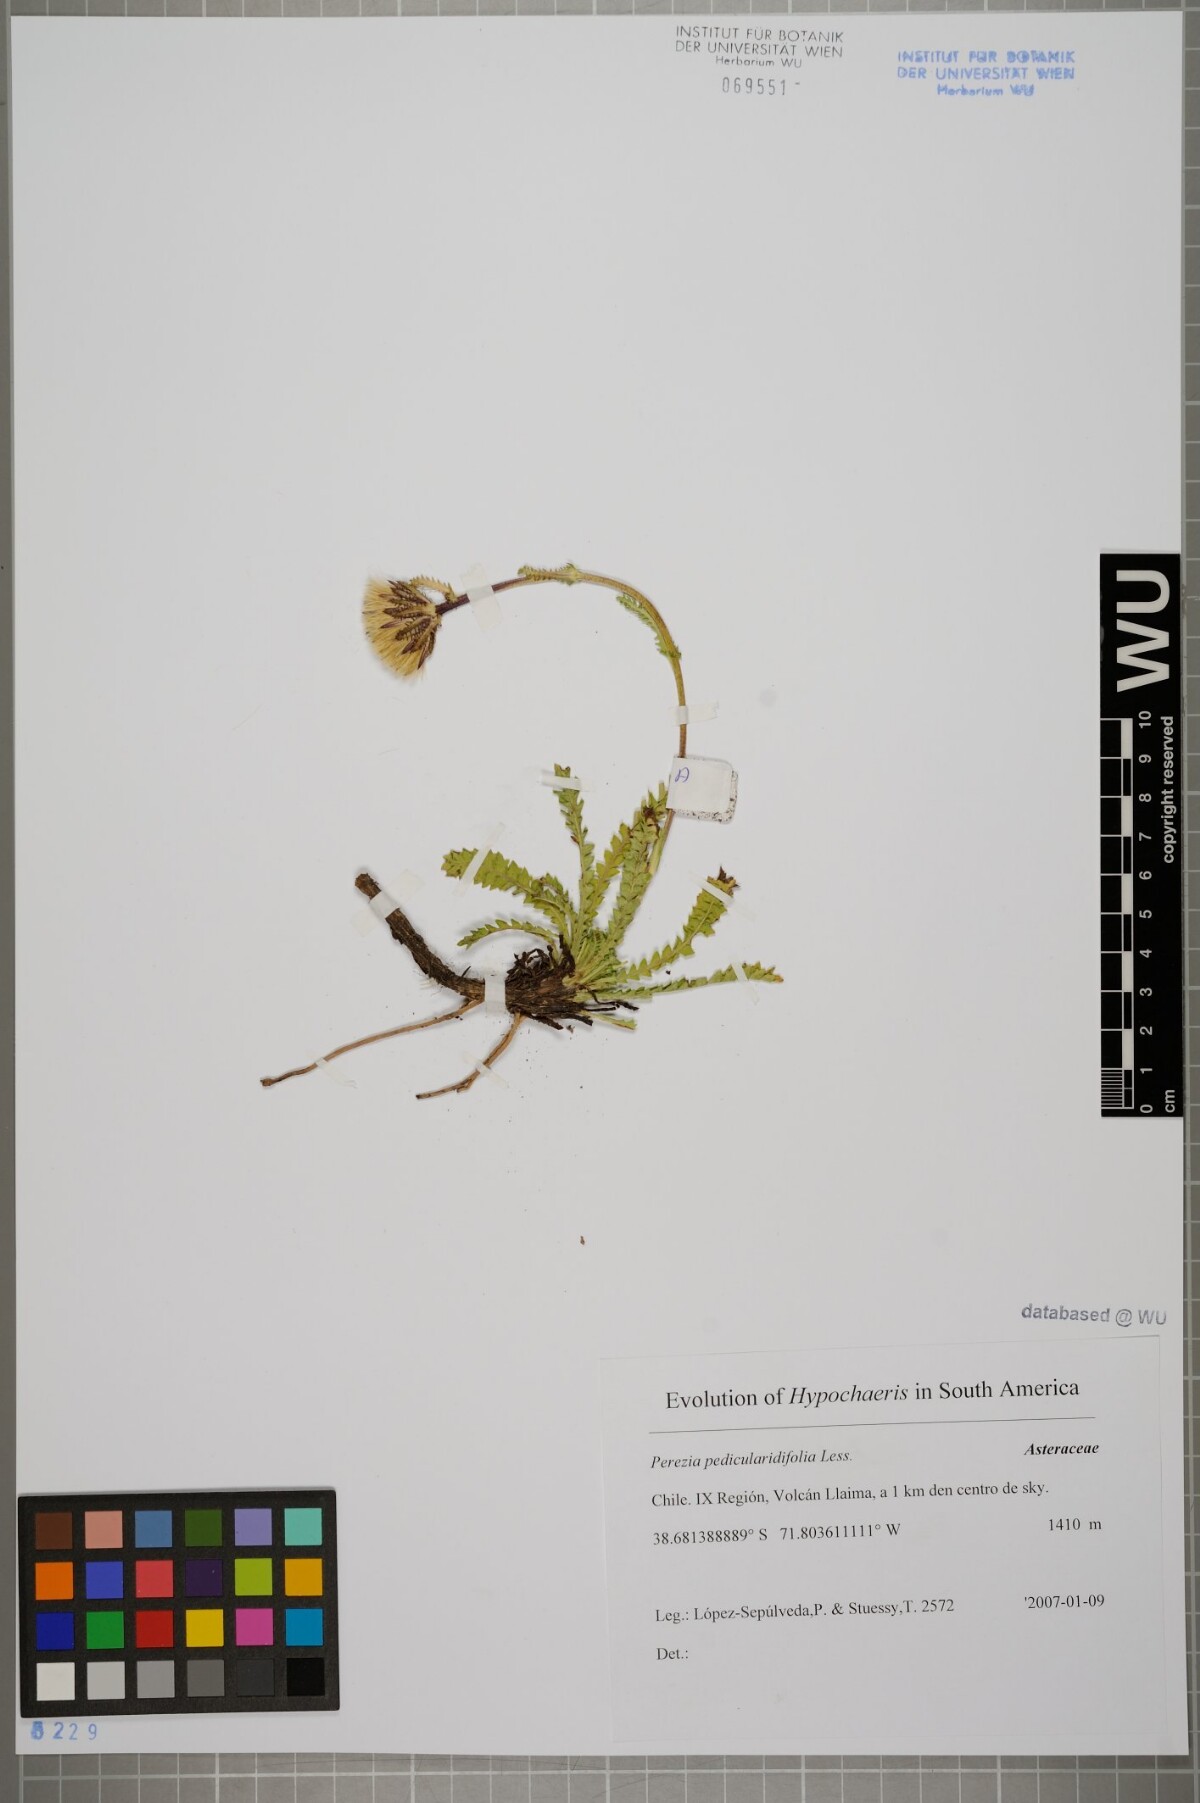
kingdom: Plantae
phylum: Tracheophyta
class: Magnoliopsida
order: Asterales
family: Asteraceae
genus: Perezia
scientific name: Perezia pedicularidifolia
